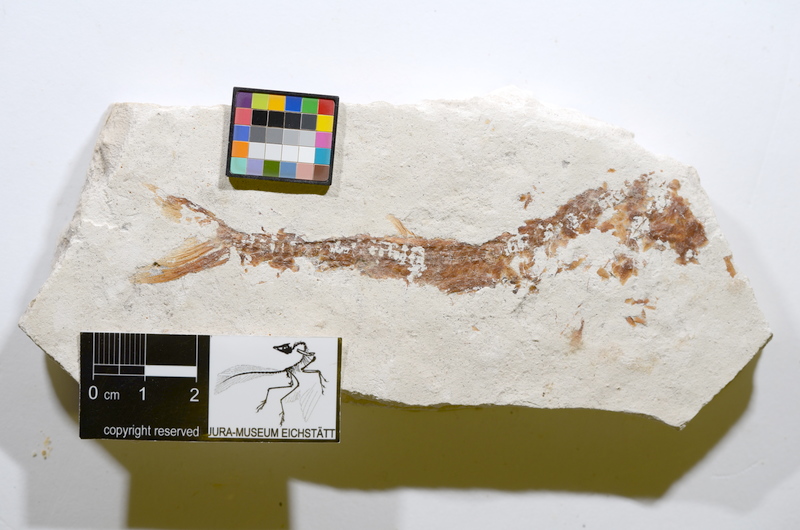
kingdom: Animalia
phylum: Chordata
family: Aspidorhynchidae
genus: Belonostomus
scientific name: Belonostomus
